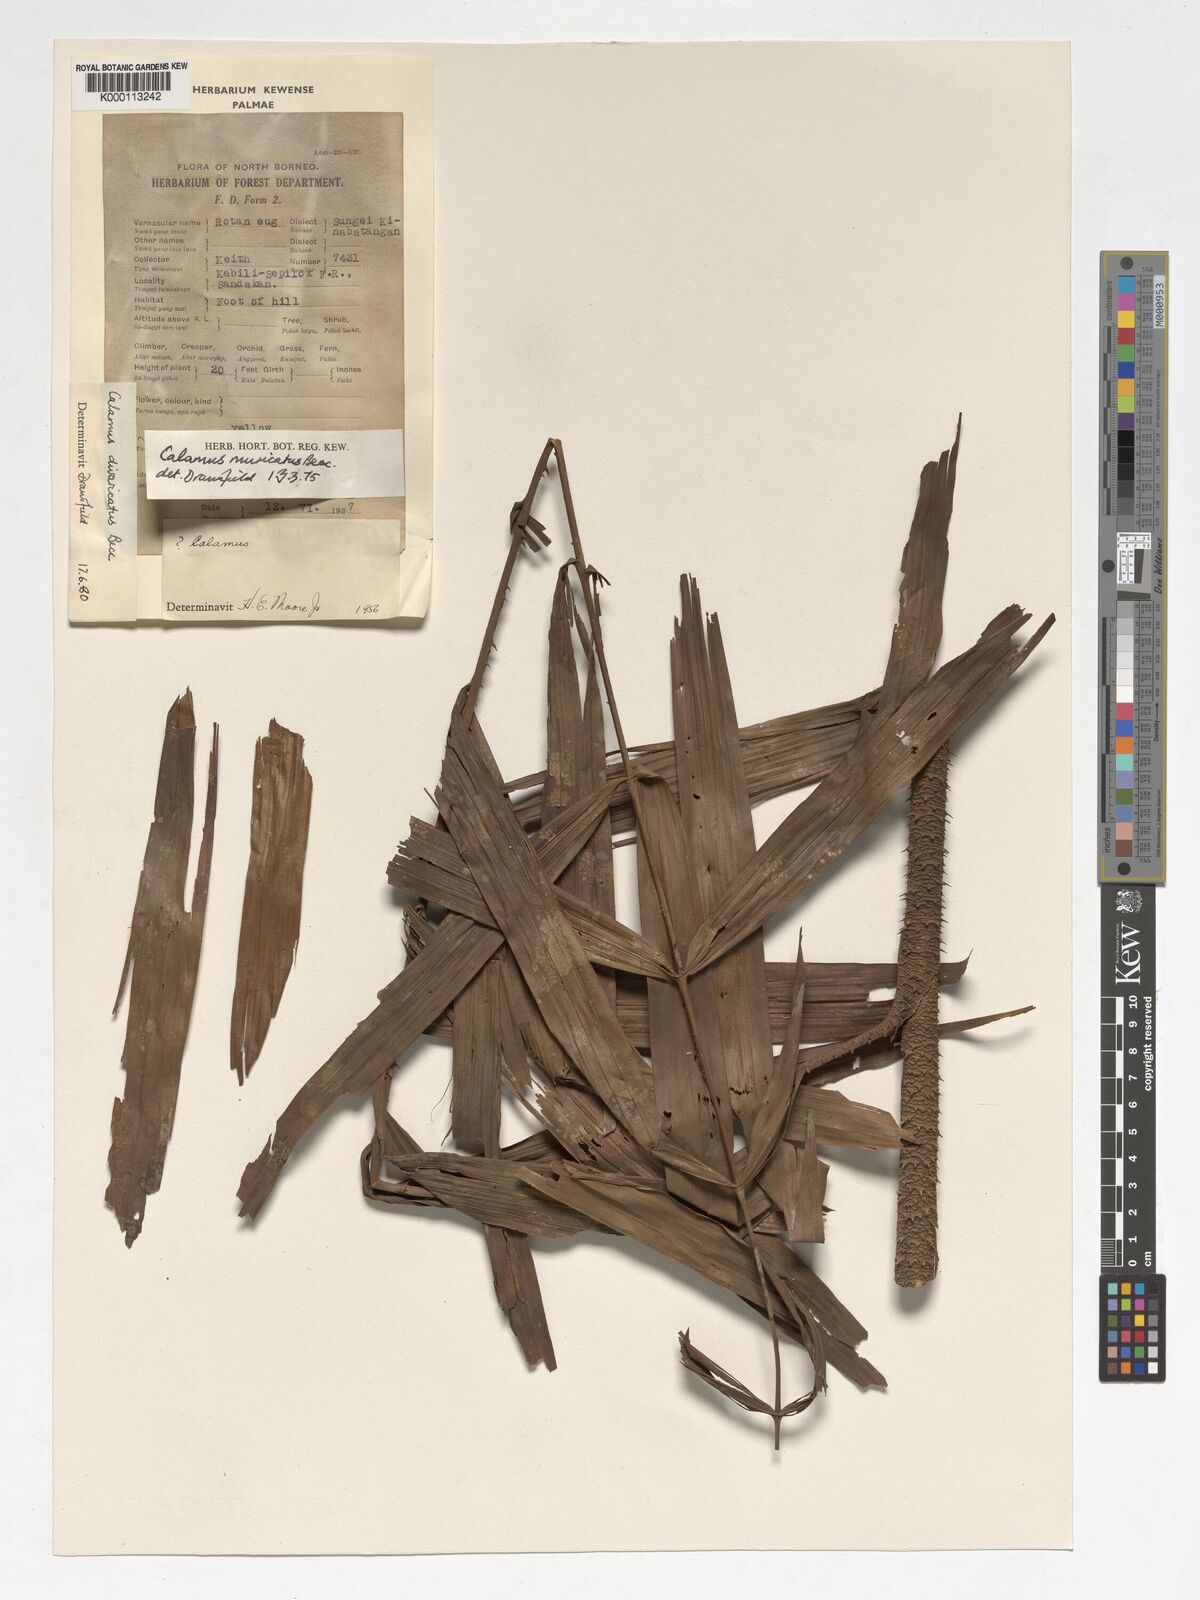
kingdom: Plantae
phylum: Tracheophyta
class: Liliopsida
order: Arecales
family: Arecaceae
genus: Calamus
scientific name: Calamus divaricatus
